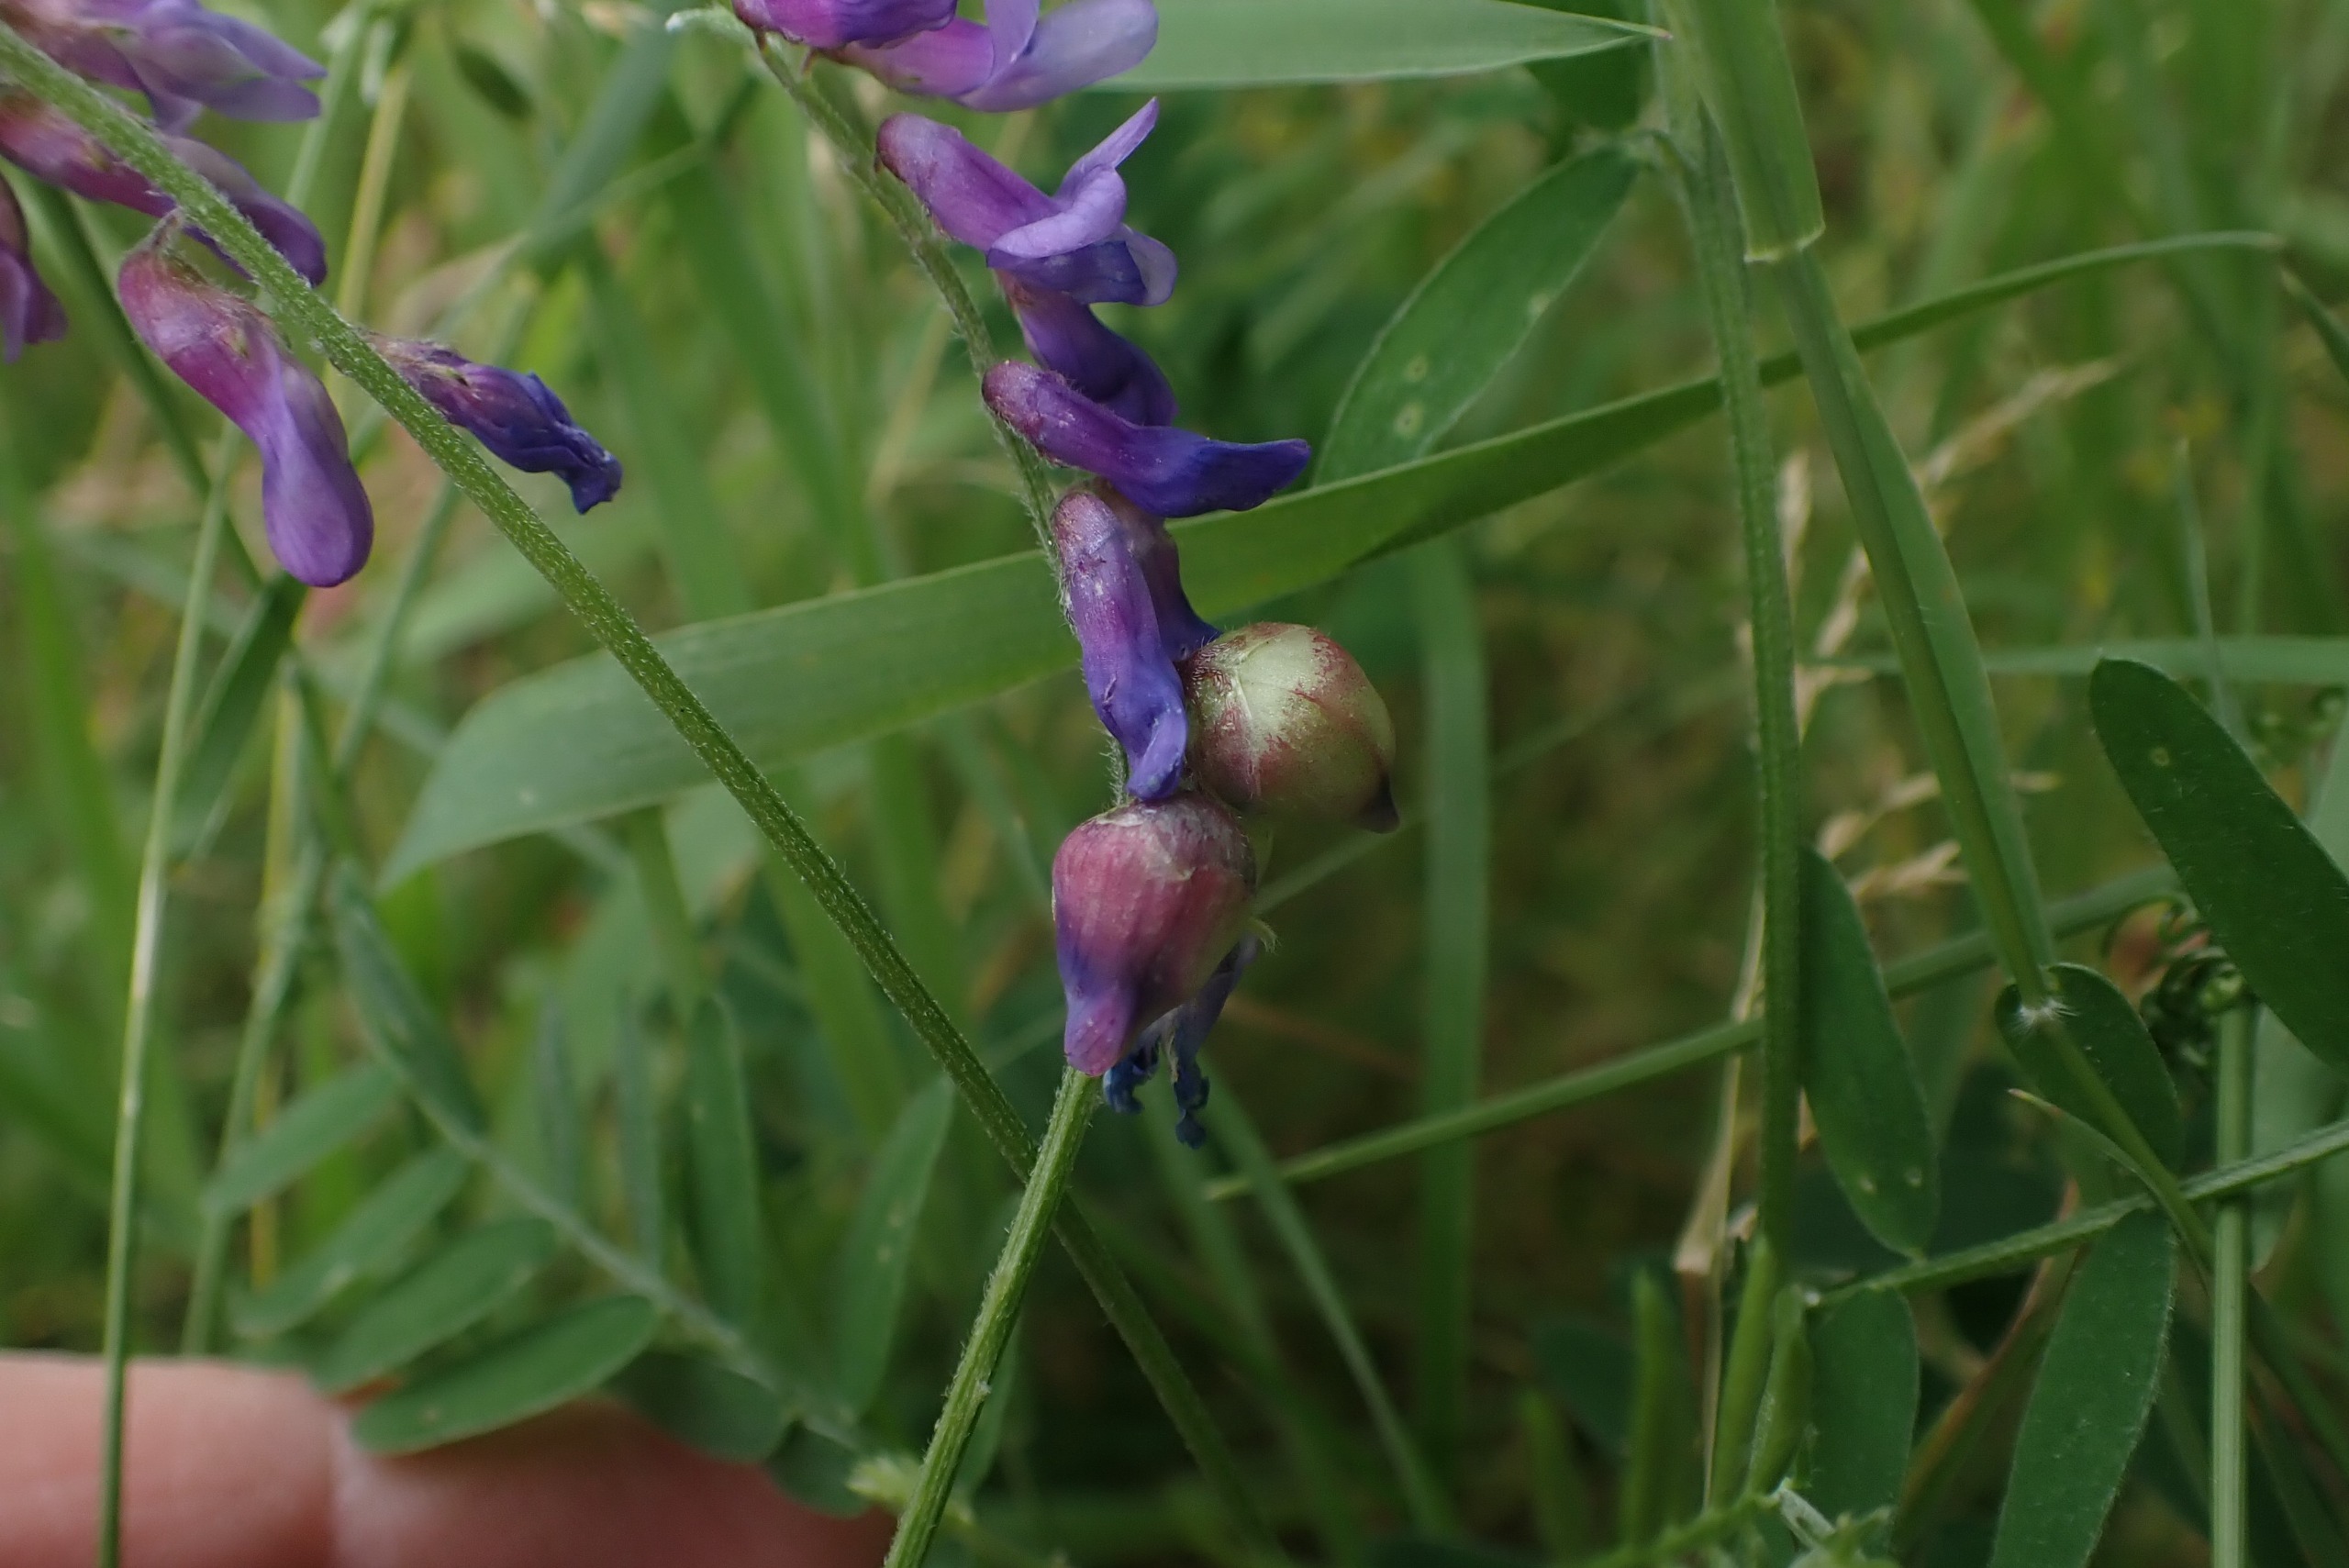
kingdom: Animalia
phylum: Arthropoda
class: Insecta
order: Diptera
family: Cecidomyiidae
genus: Contarinia
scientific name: Contarinia craccae
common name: Vikkeblomstgalmyg
